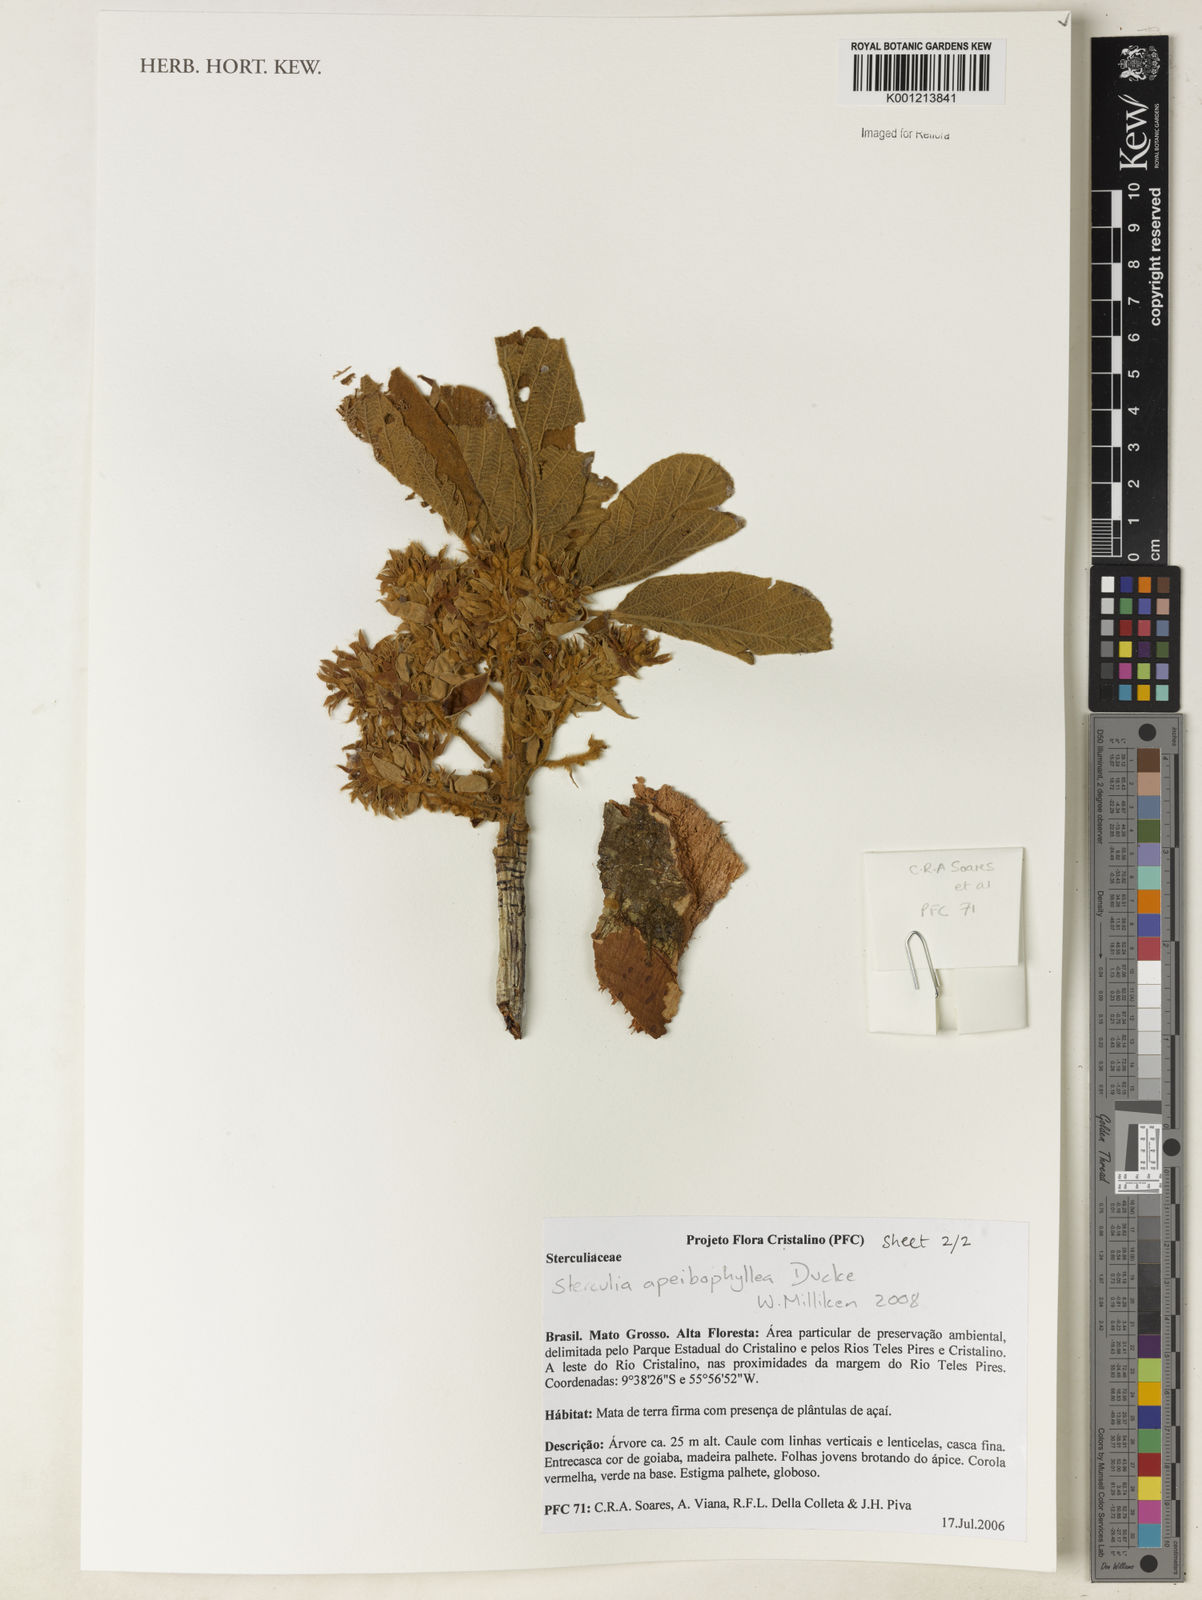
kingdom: Plantae
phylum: Tracheophyta
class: Magnoliopsida
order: Malvales
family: Malvaceae
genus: Sterculia
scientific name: Sterculia apeibophylla
